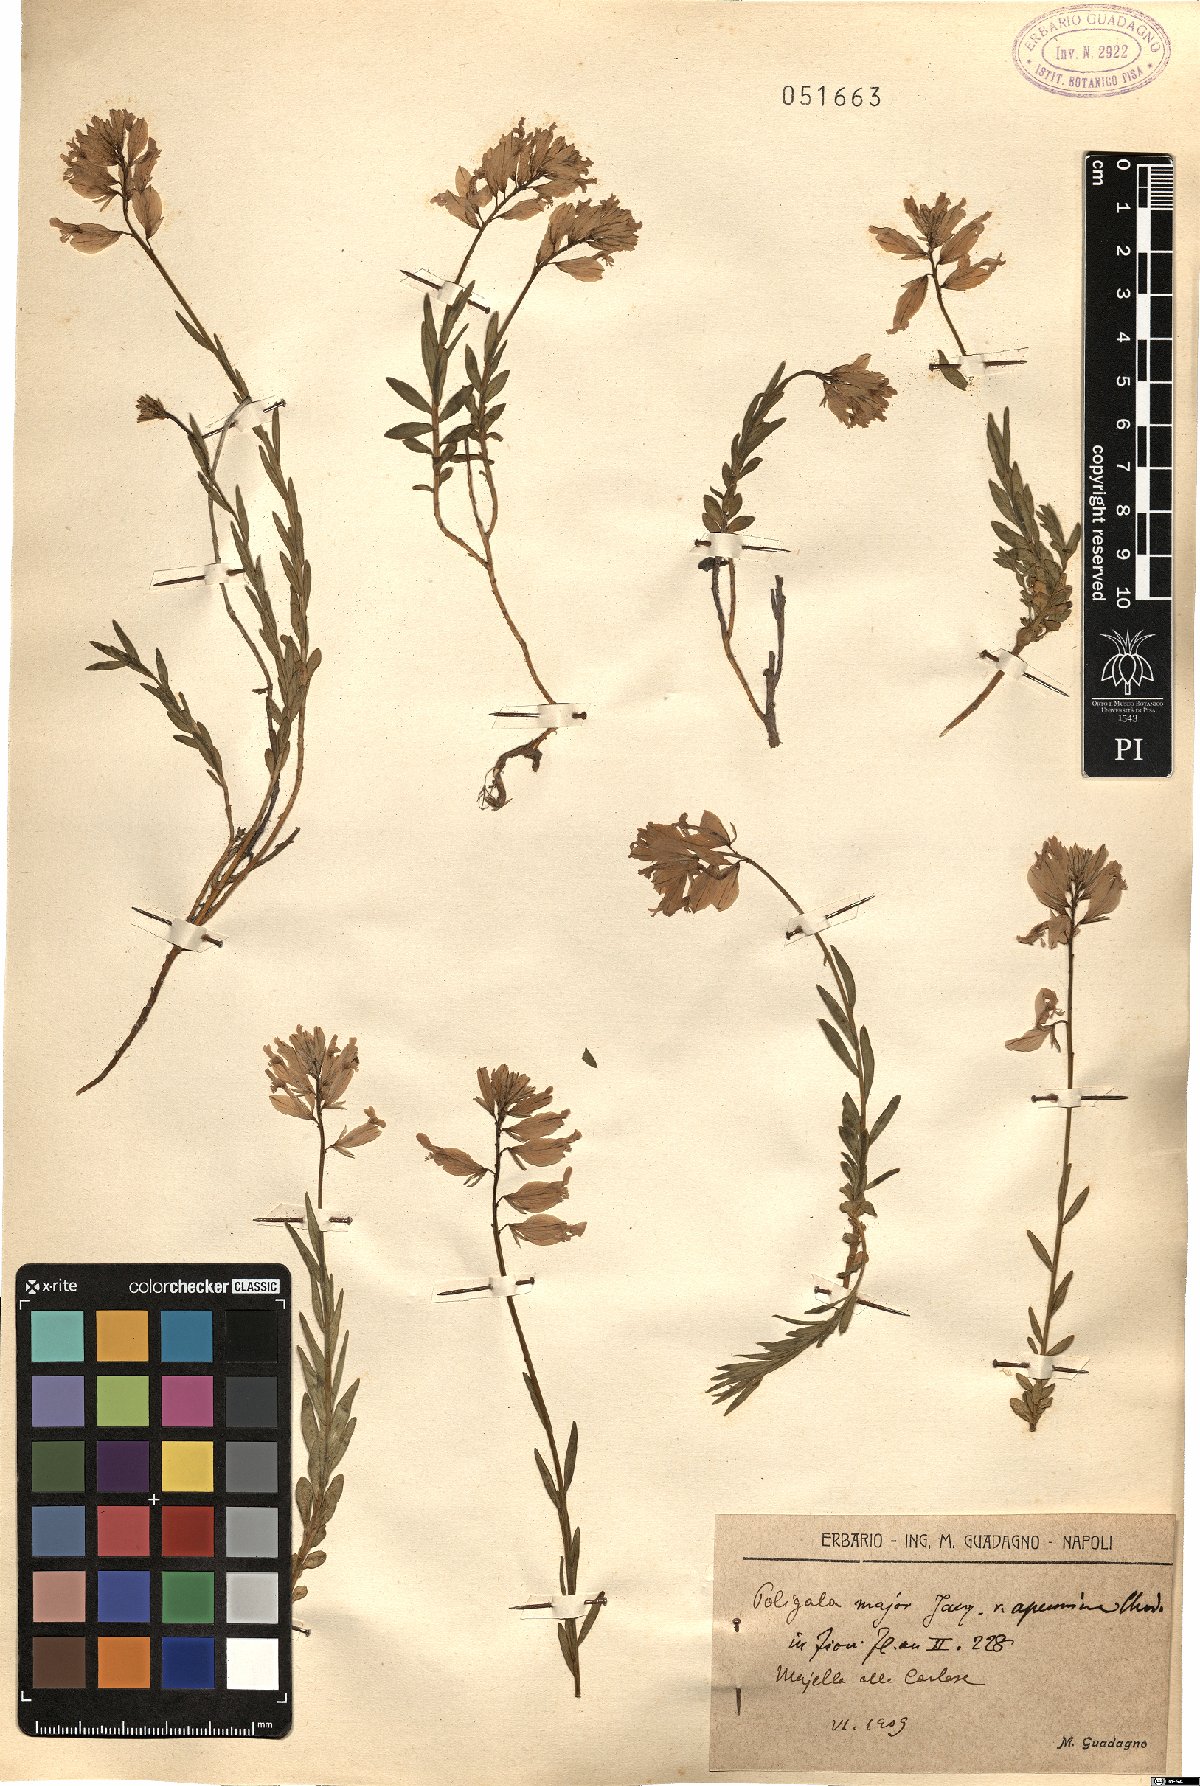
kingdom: Plantae
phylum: Tracheophyta
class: Magnoliopsida
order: Fabales
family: Polygalaceae
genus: Polygala
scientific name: Polygala major
